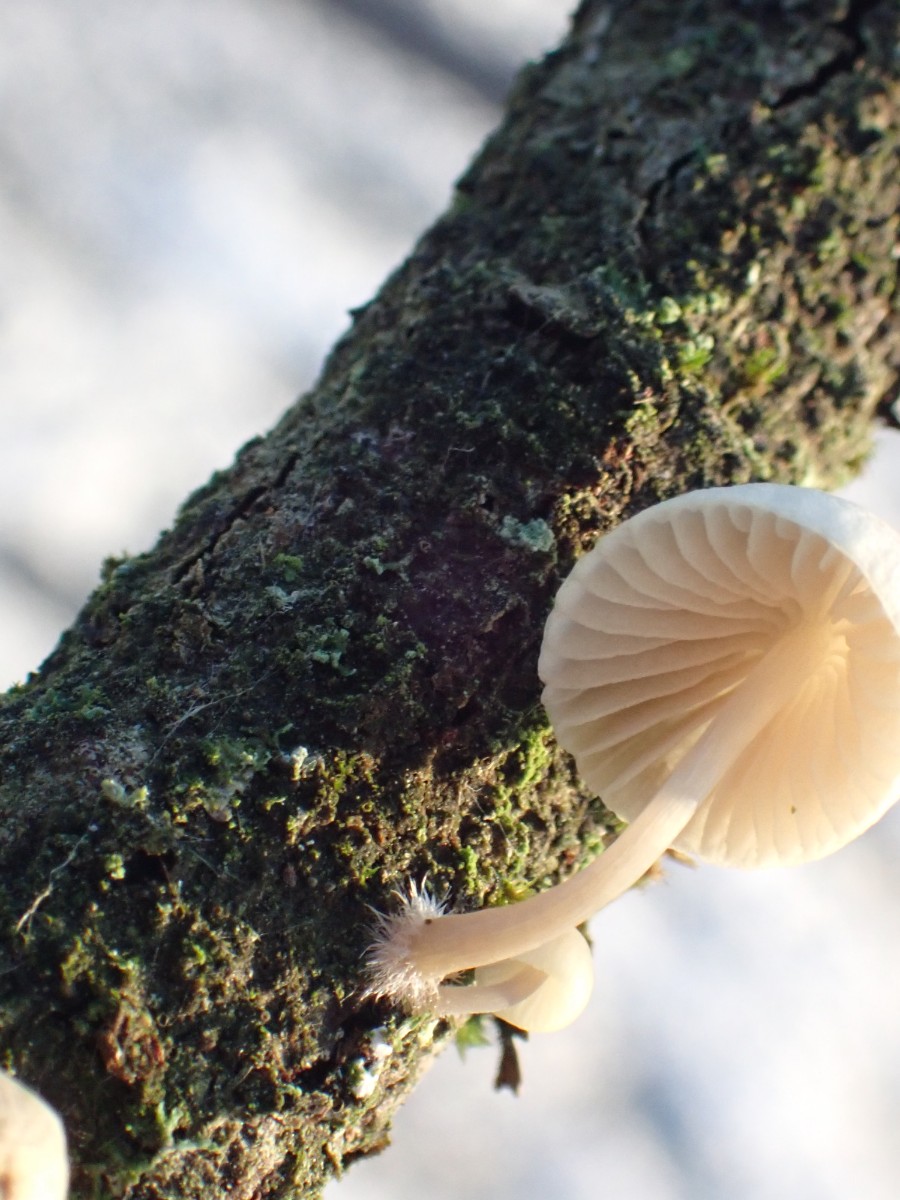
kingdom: Fungi
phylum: Basidiomycota
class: Agaricomycetes
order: Agaricales
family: Mycenaceae
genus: Mycena
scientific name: Mycena arcangeliana
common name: oliven-huesvamp
